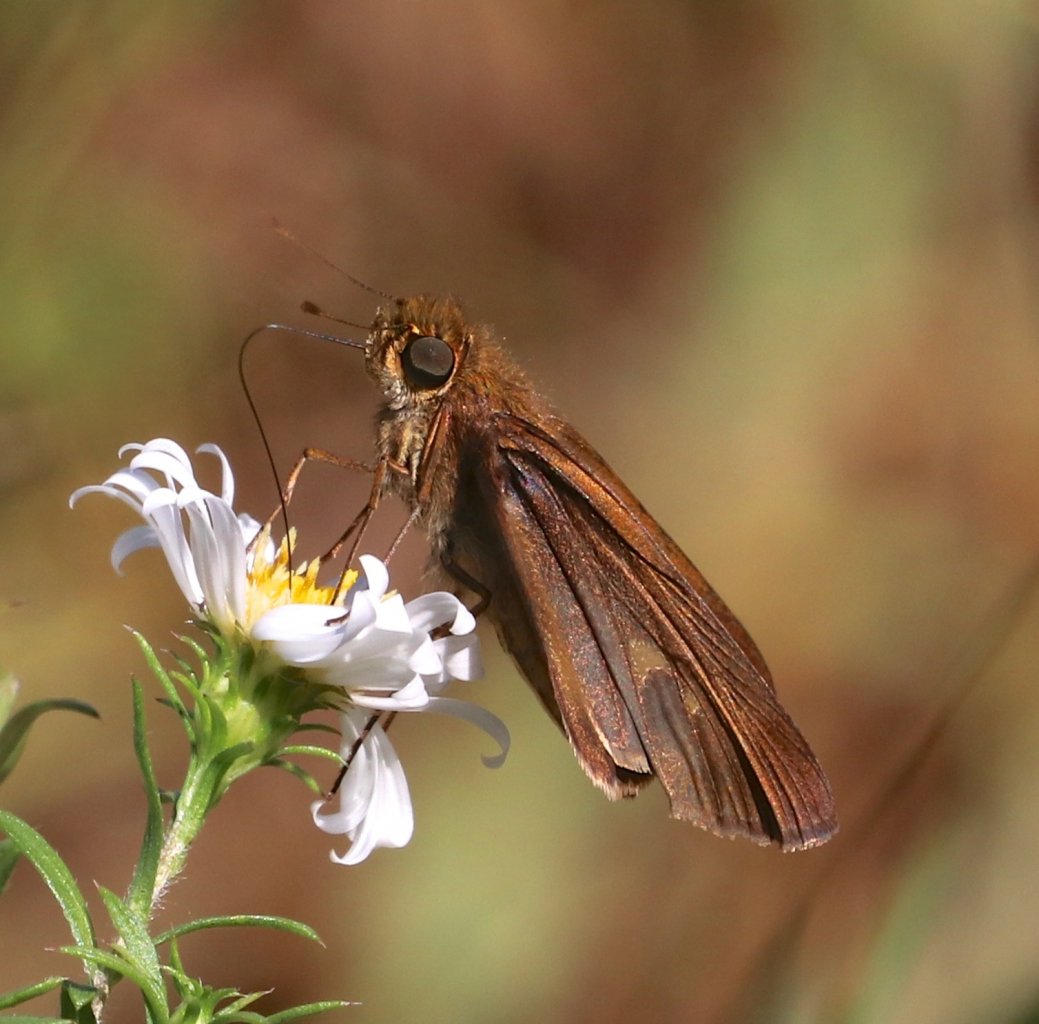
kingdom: Animalia
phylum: Arthropoda
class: Insecta
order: Lepidoptera
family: Hesperiidae
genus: Panoquina
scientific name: Panoquina ocola
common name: Ocola Skipper
